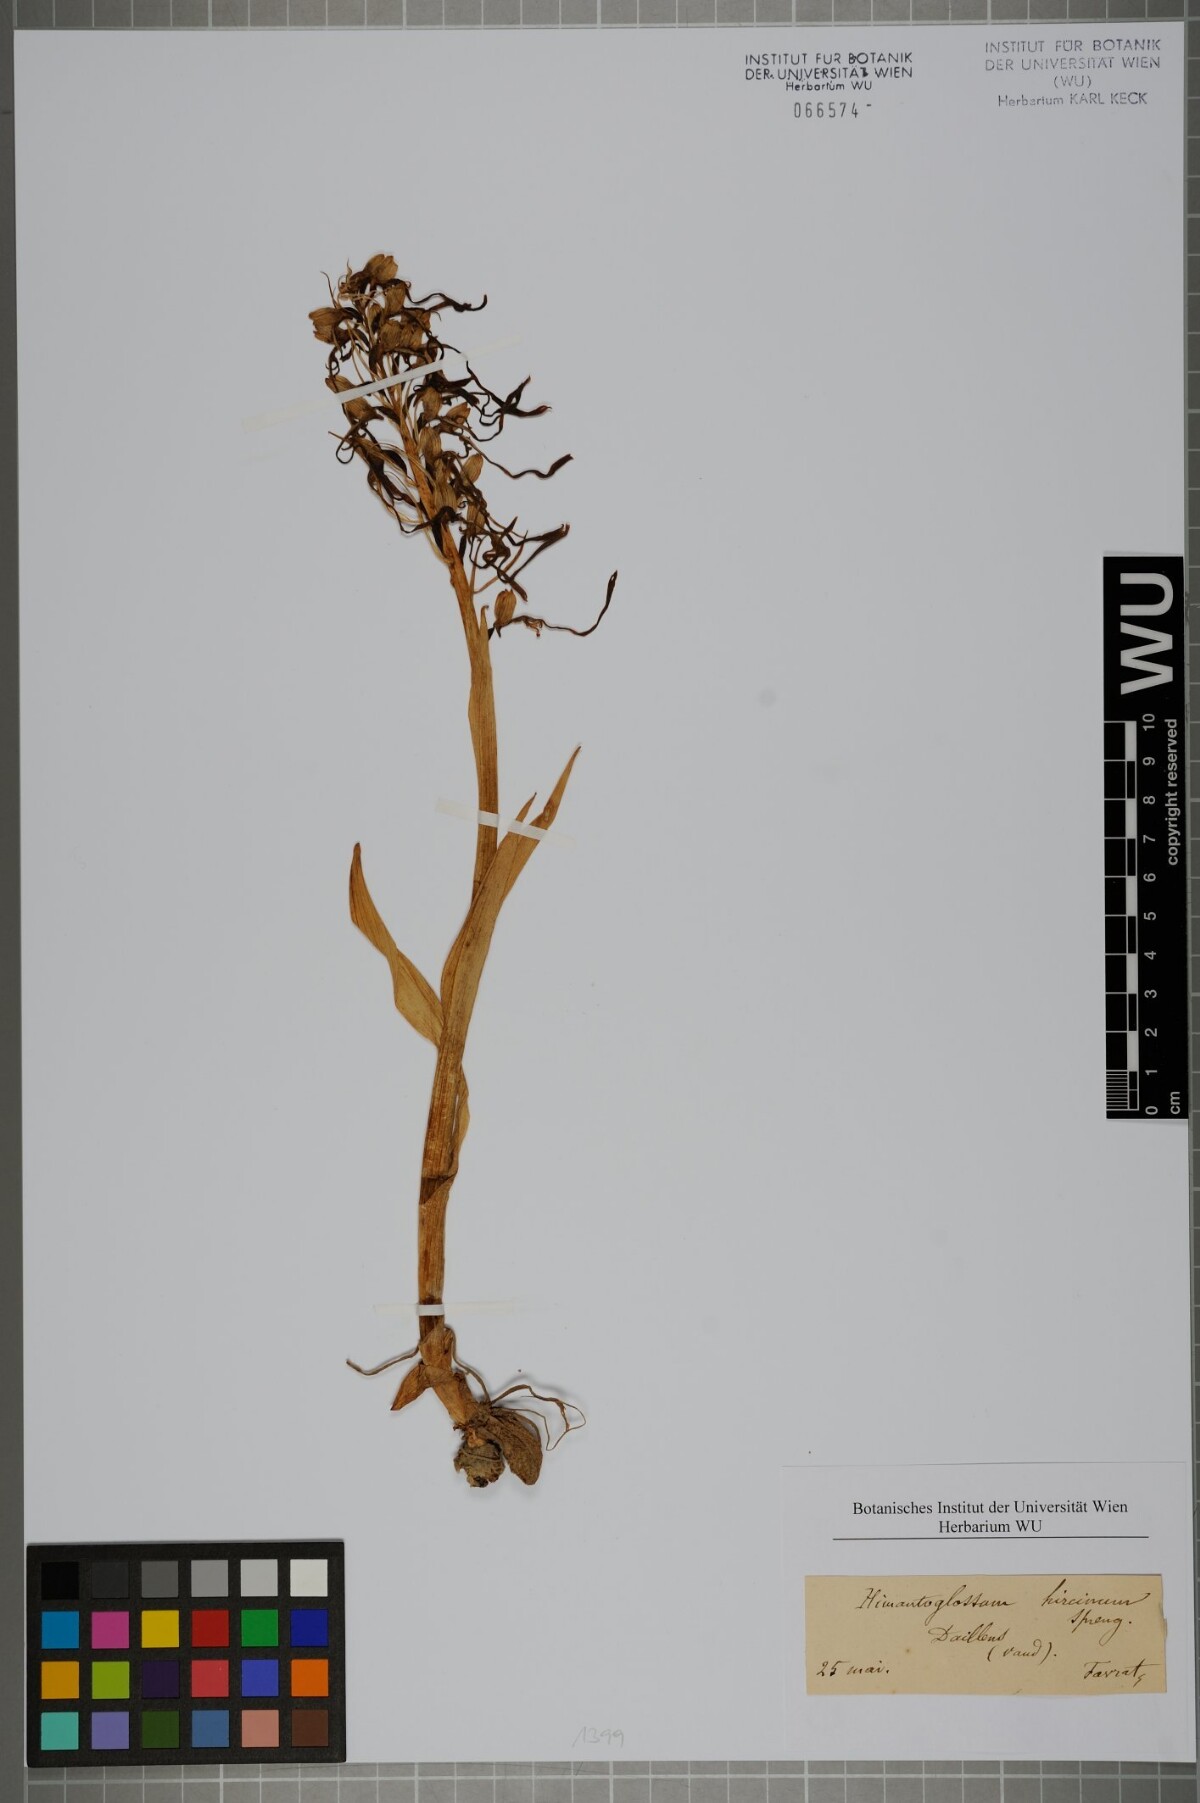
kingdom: Plantae
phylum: Tracheophyta
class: Liliopsida
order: Asparagales
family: Orchidaceae
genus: Himantoglossum
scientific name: Himantoglossum hircinum
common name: Lizard orchid
